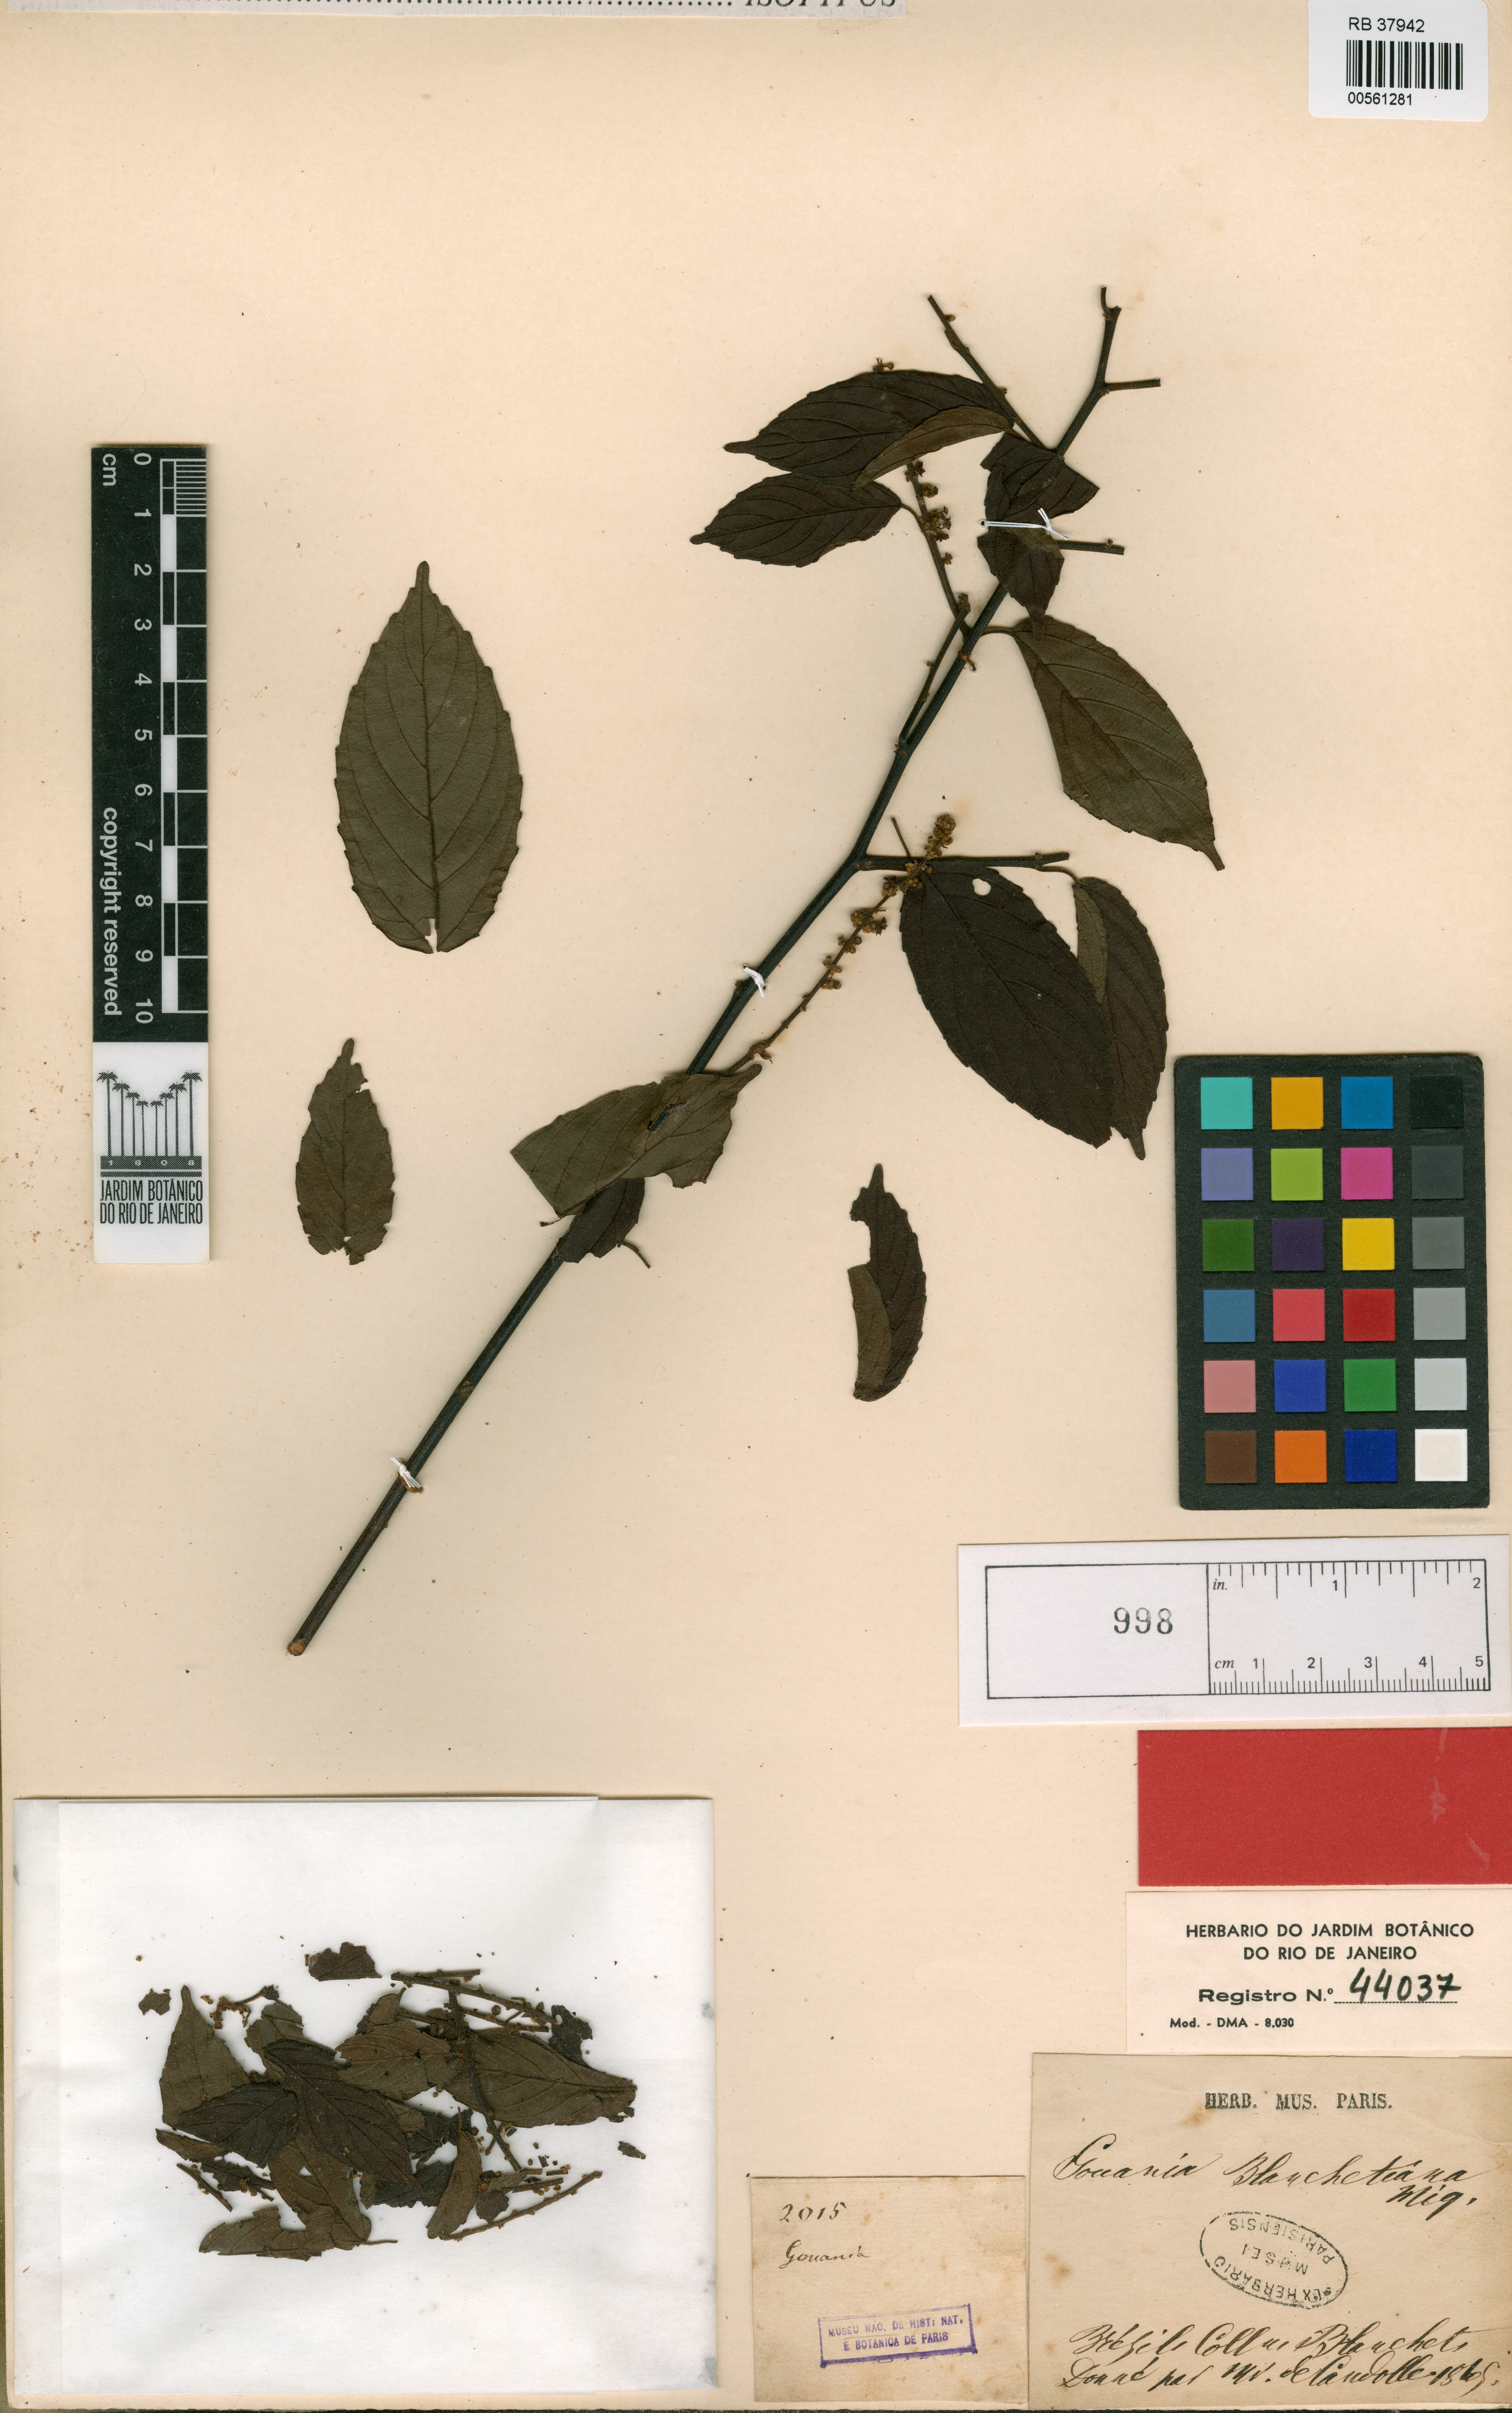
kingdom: Plantae
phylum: Tracheophyta
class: Magnoliopsida
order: Rosales
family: Rhamnaceae
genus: Gouania
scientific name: Gouania blanchetiana
